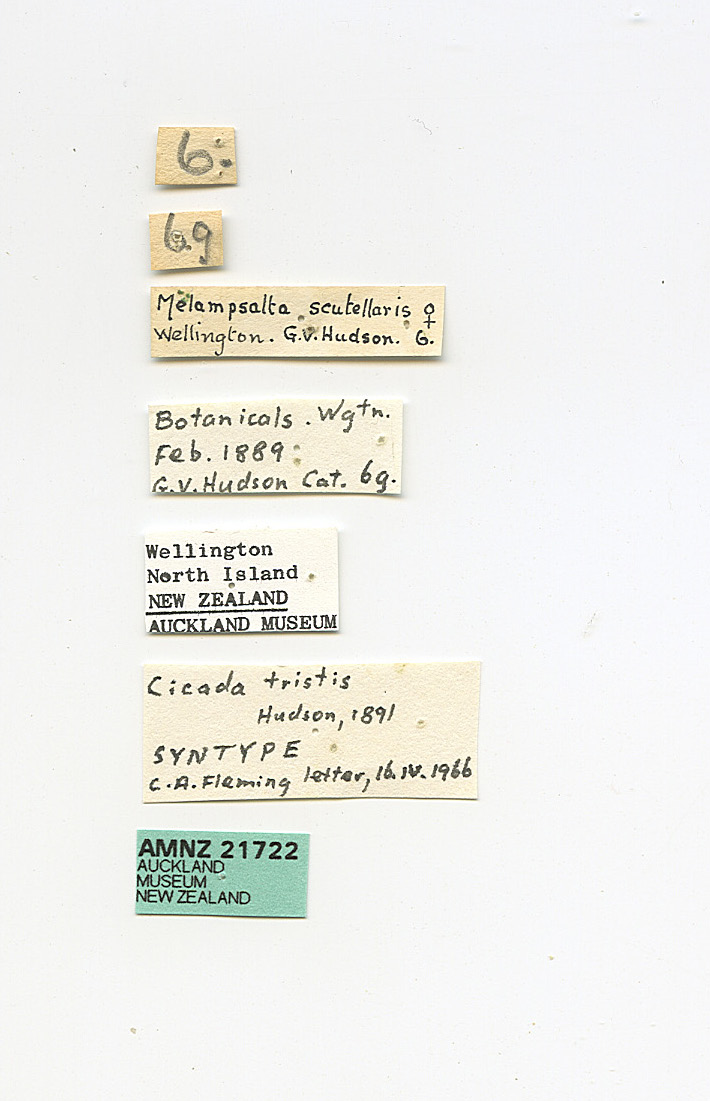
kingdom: Animalia
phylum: Arthropoda
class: Insecta
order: Hemiptera
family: Cicadidae
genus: Kikihia
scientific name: Kikihia scutellaris
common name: Lesser bronze cicada
